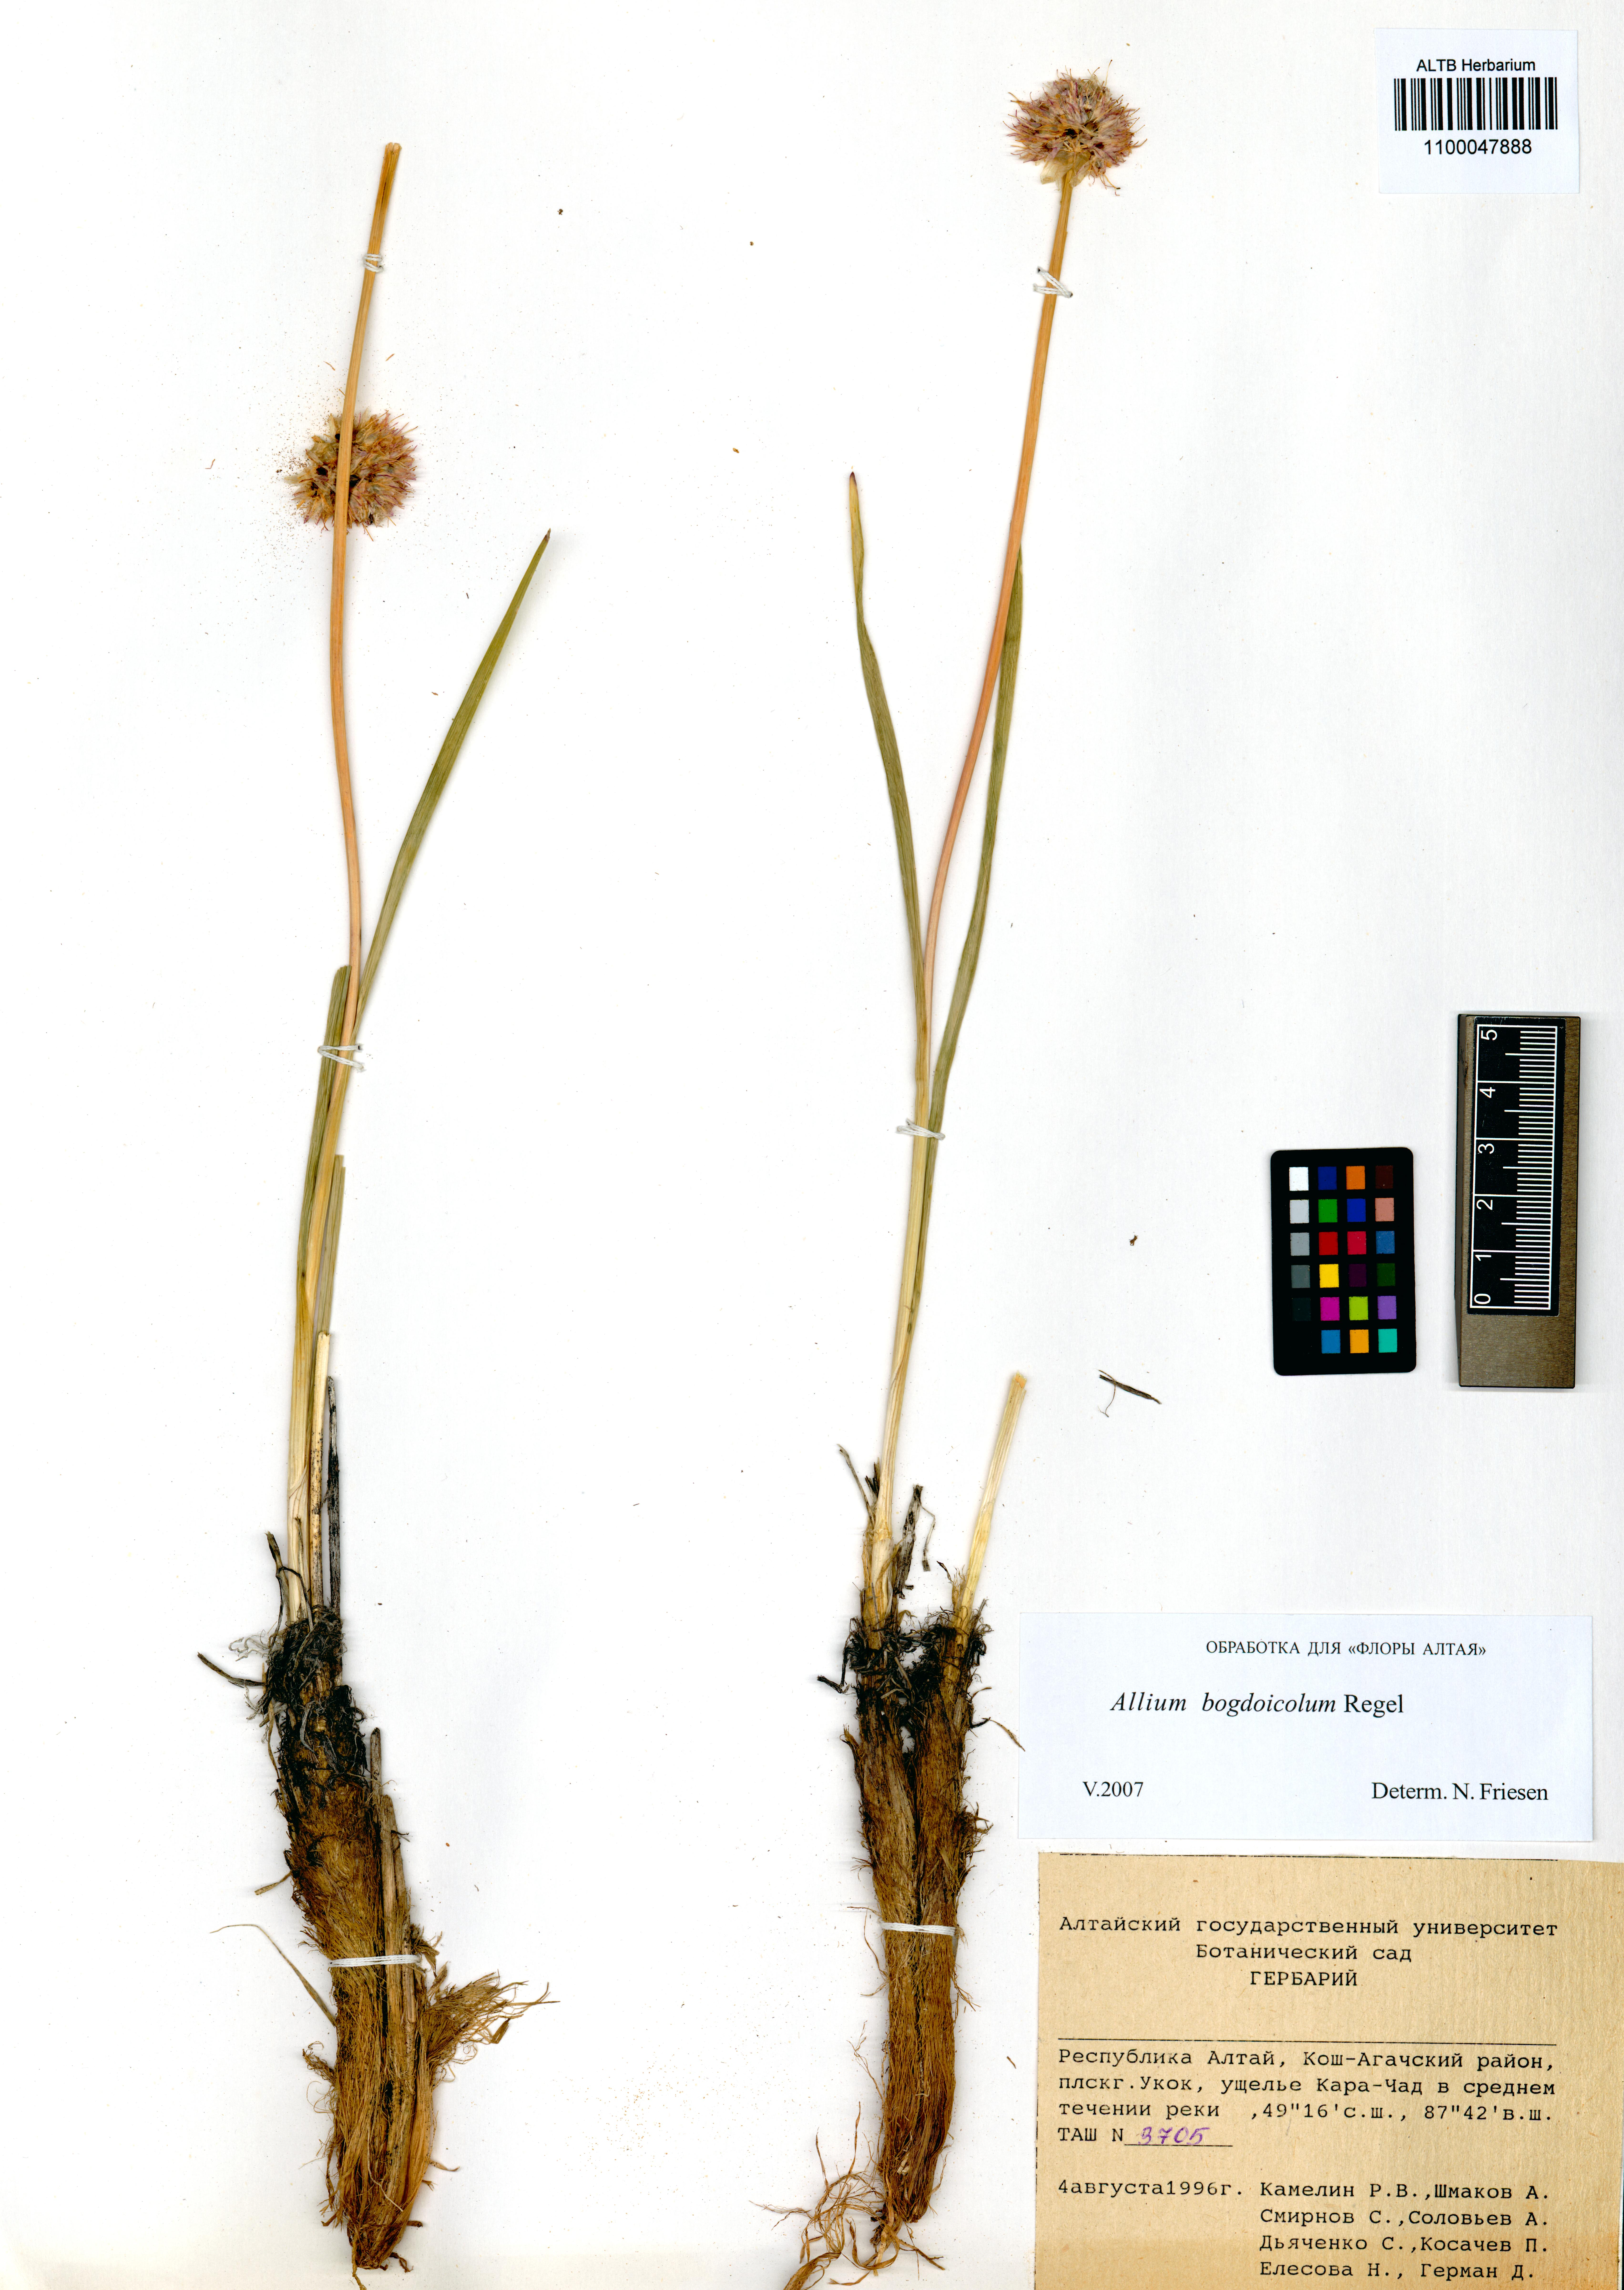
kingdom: Plantae
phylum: Tracheophyta
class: Liliopsida
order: Asparagales
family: Amaryllidaceae
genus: Allium
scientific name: Allium schrenkii
